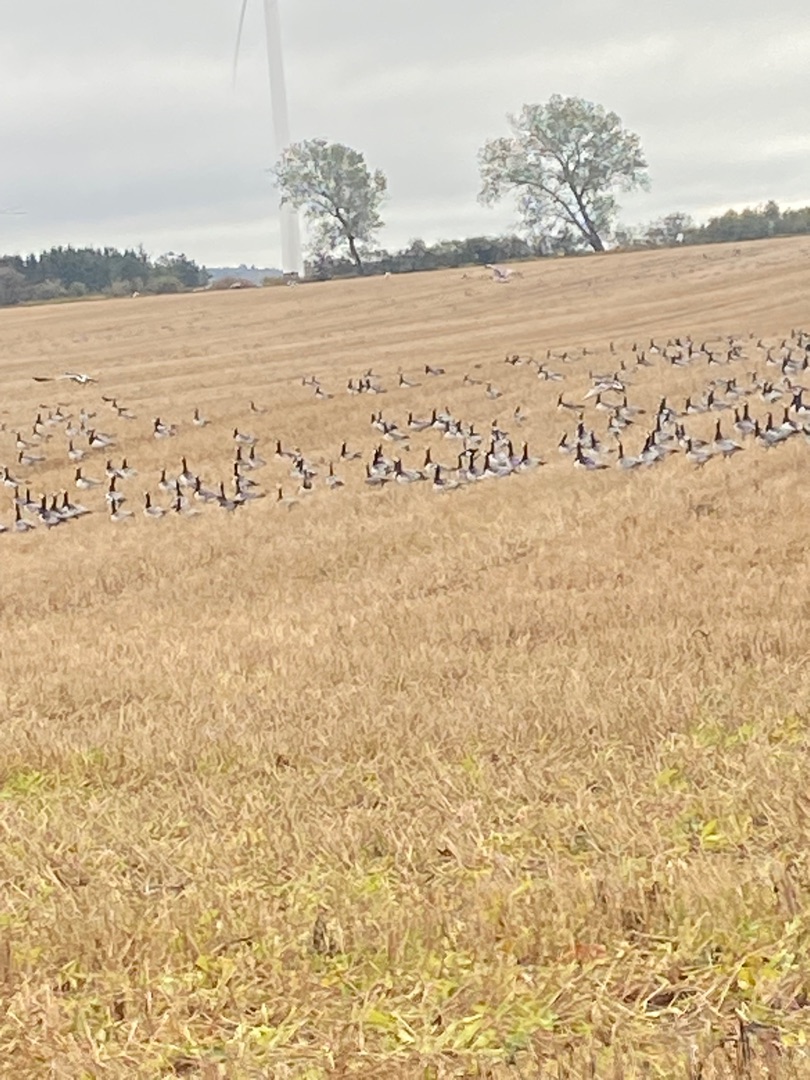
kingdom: Animalia
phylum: Chordata
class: Aves
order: Anseriformes
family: Anatidae
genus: Branta
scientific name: Branta leucopsis
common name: Bramgås
